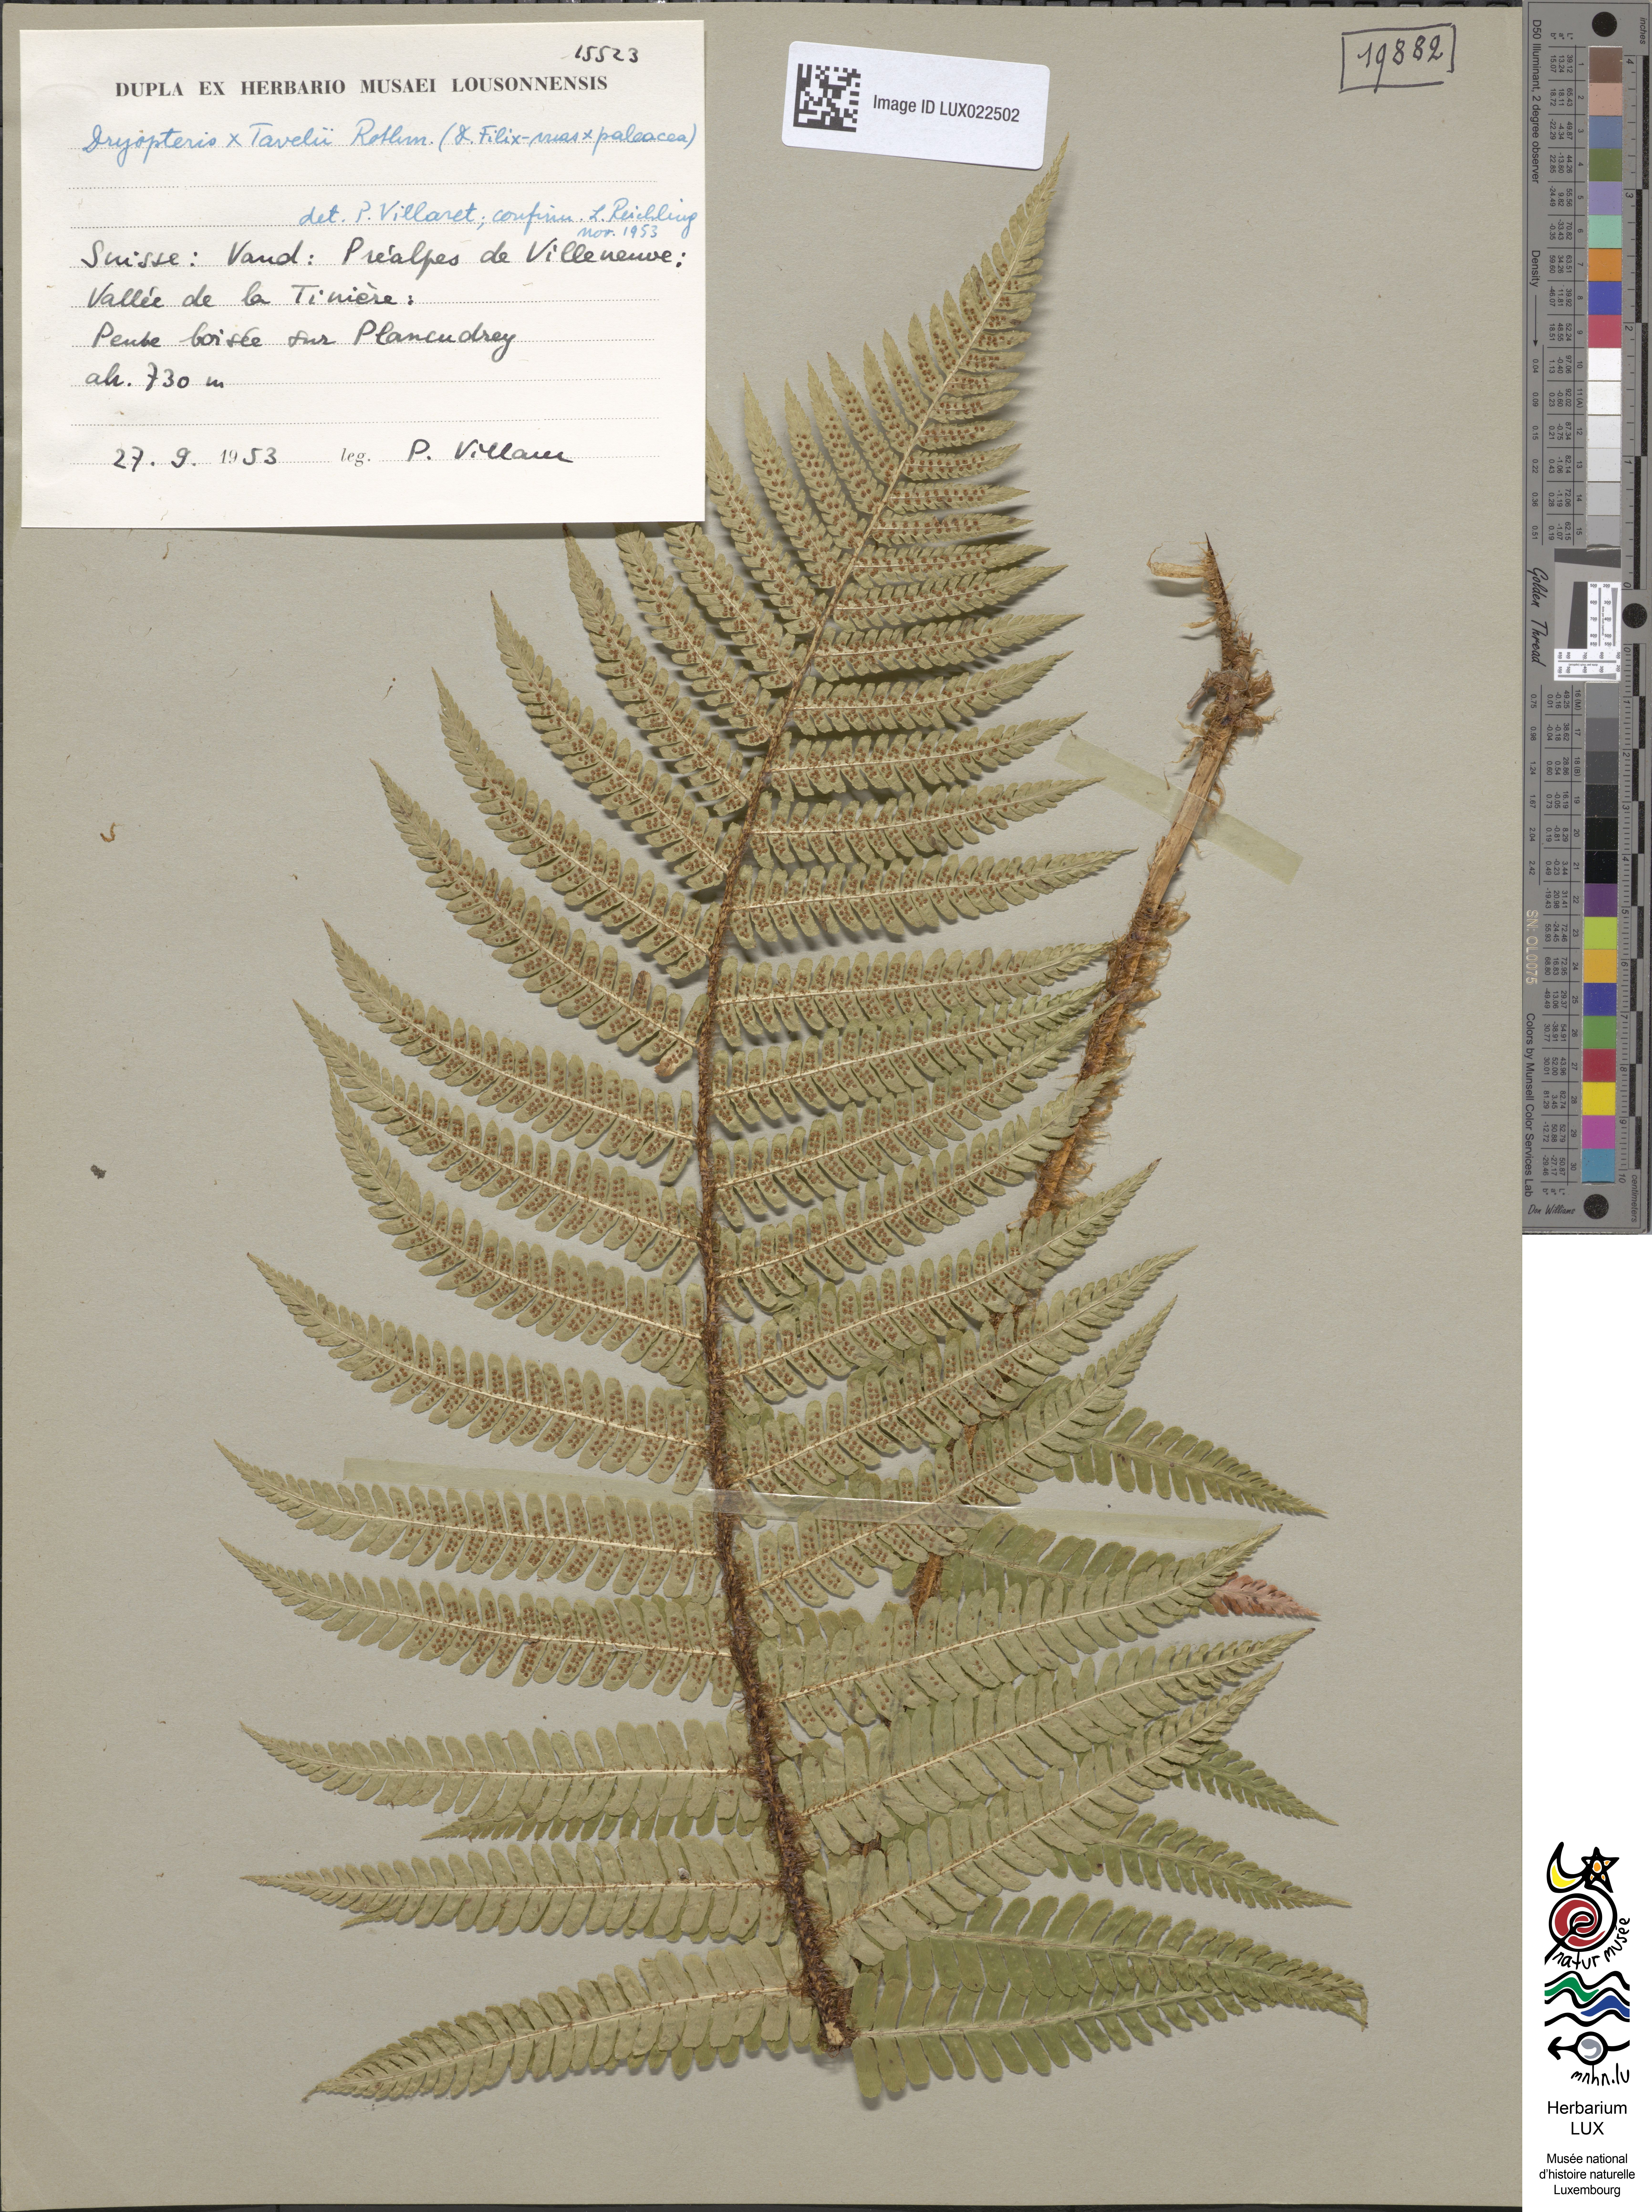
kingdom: Plantae
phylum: Tracheophyta
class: Polypodiopsida
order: Polypodiales
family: Dryopteridaceae
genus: Dryopteris
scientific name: Dryopteris borreri
